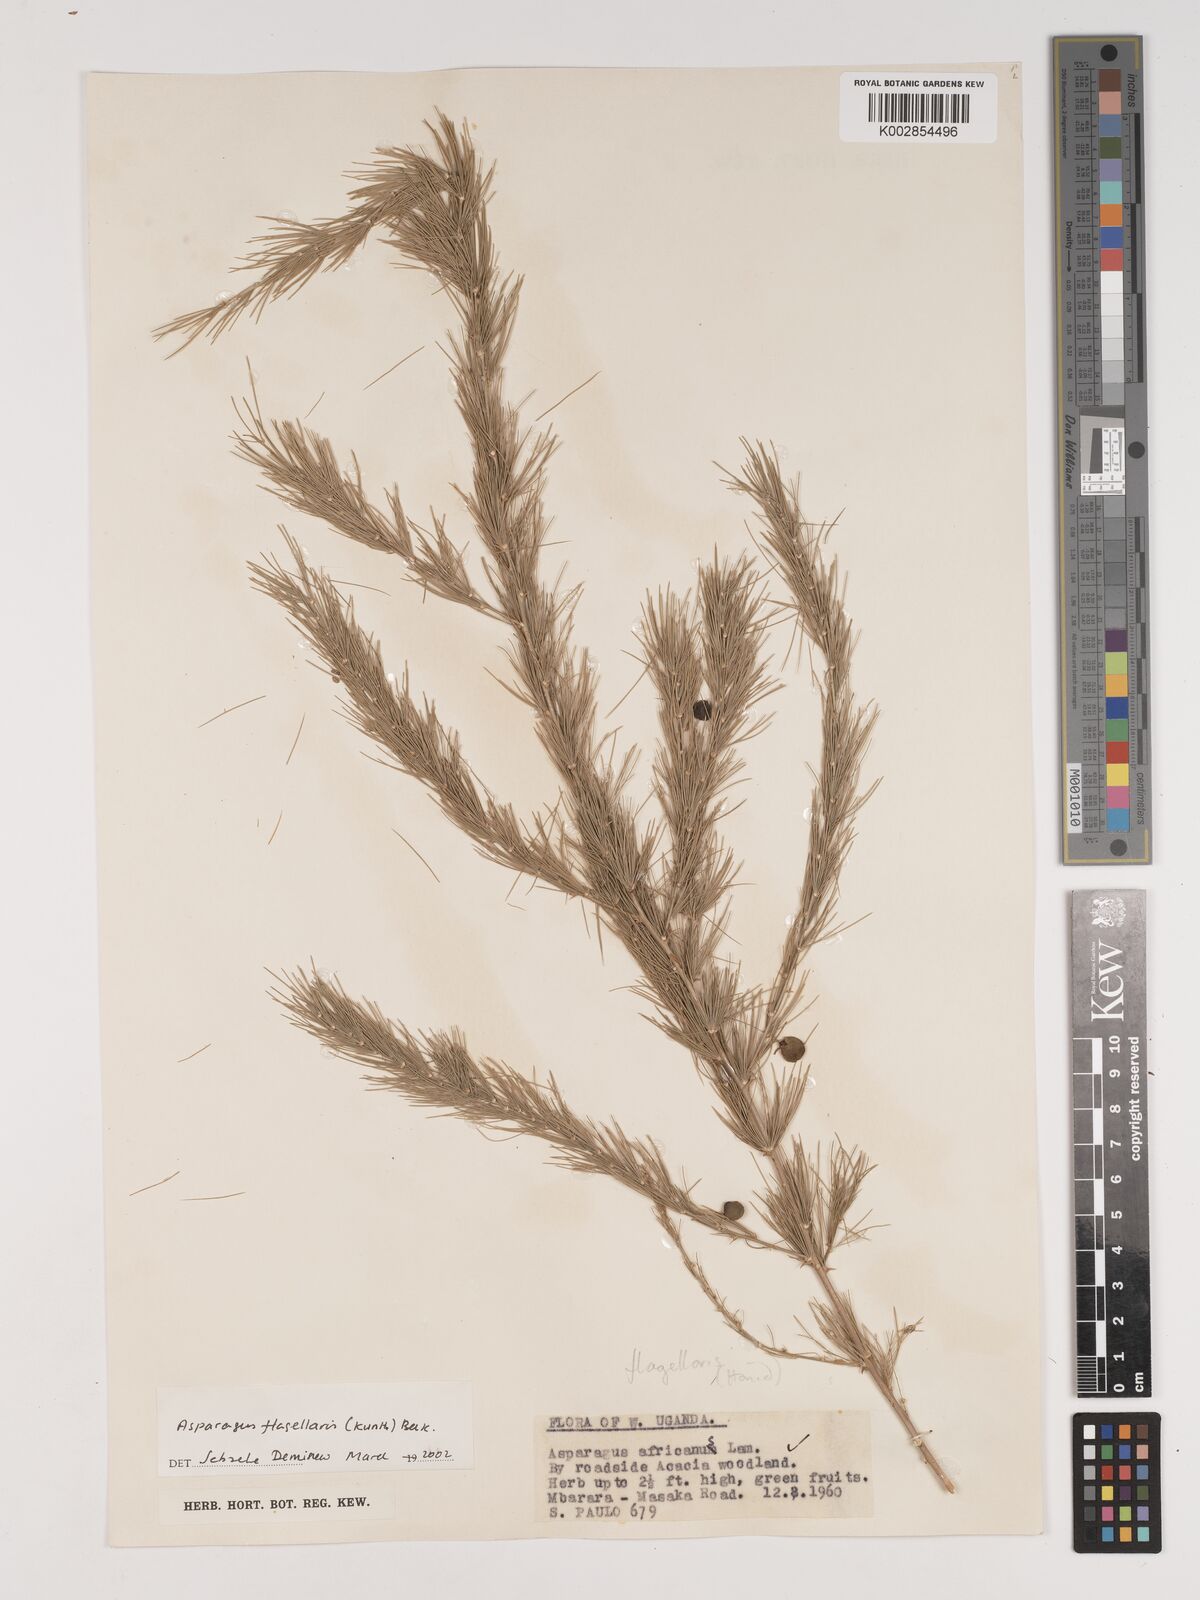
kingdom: Plantae
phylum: Tracheophyta
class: Liliopsida
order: Asparagales
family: Asparagaceae
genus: Asparagus
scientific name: Asparagus flagellaris
